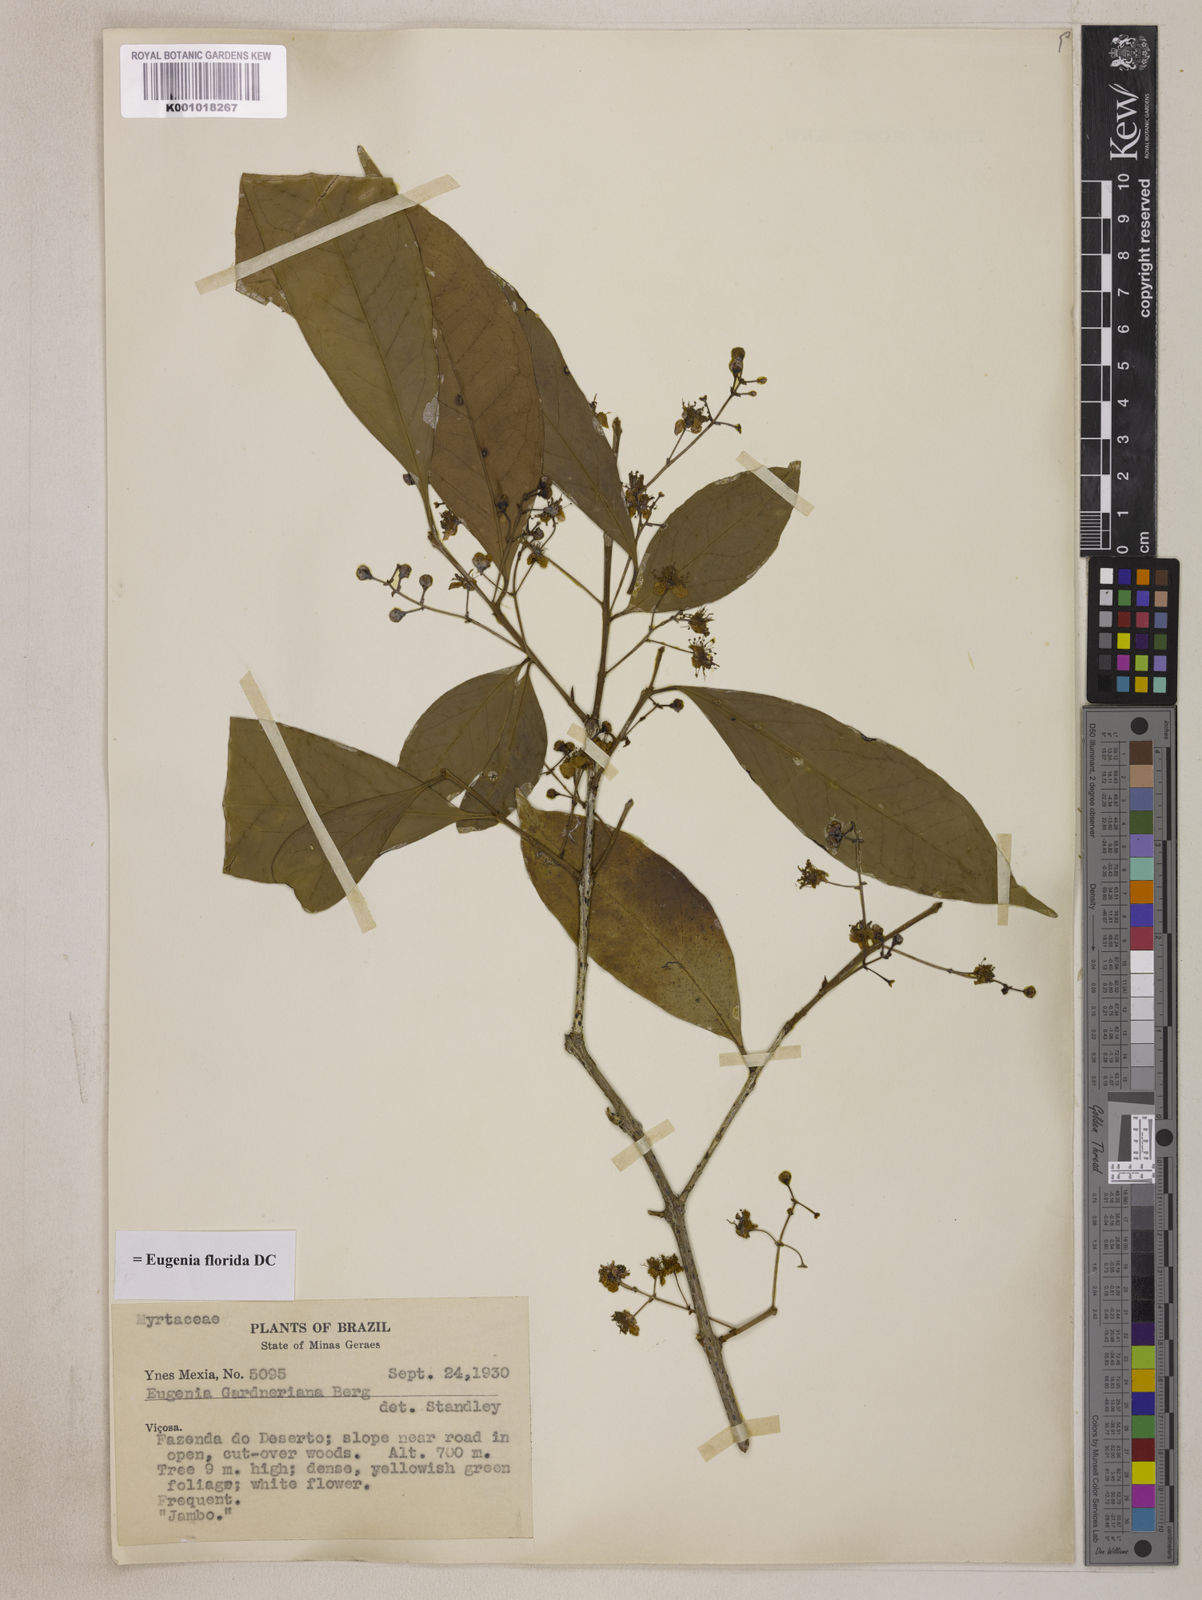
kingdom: Plantae
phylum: Tracheophyta
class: Magnoliopsida
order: Myrtales
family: Myrtaceae
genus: Eugenia
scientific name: Eugenia florida
